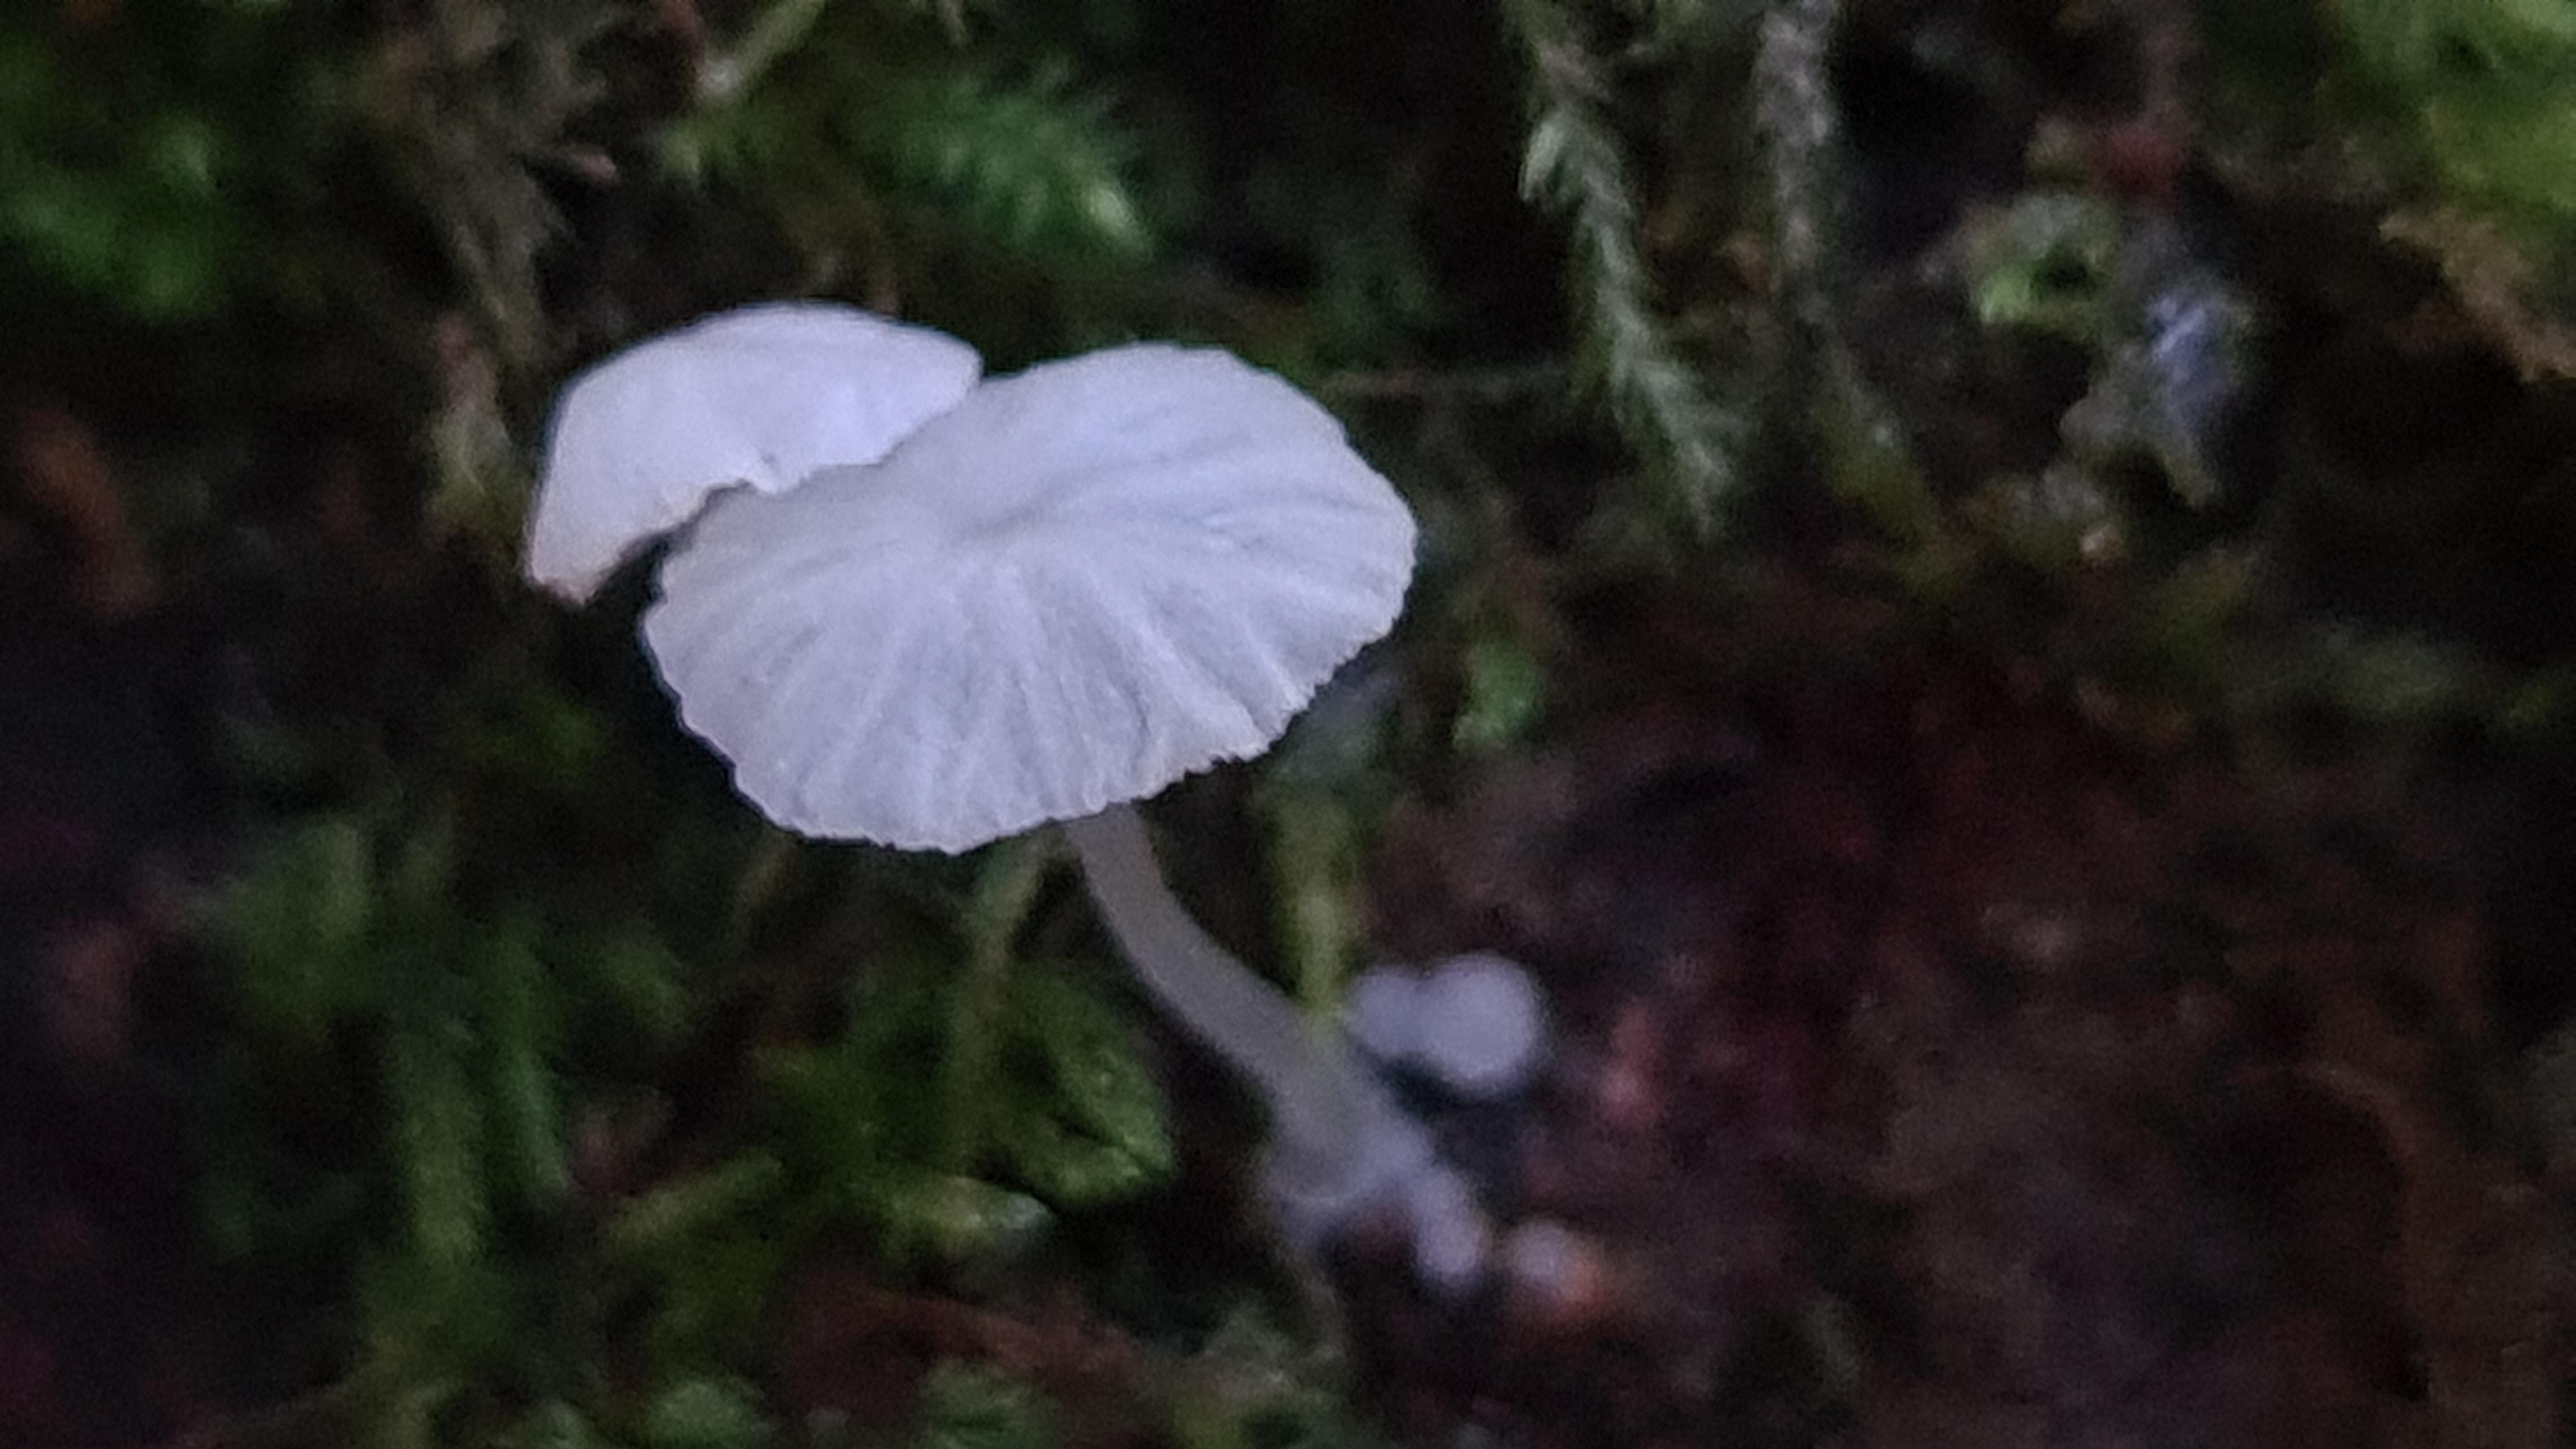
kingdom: Fungi
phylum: Basidiomycota
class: Agaricomycetes
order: Agaricales
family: Tricholomataceae
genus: Delicatula
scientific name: Delicatula integrella
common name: slørhuesvamp
